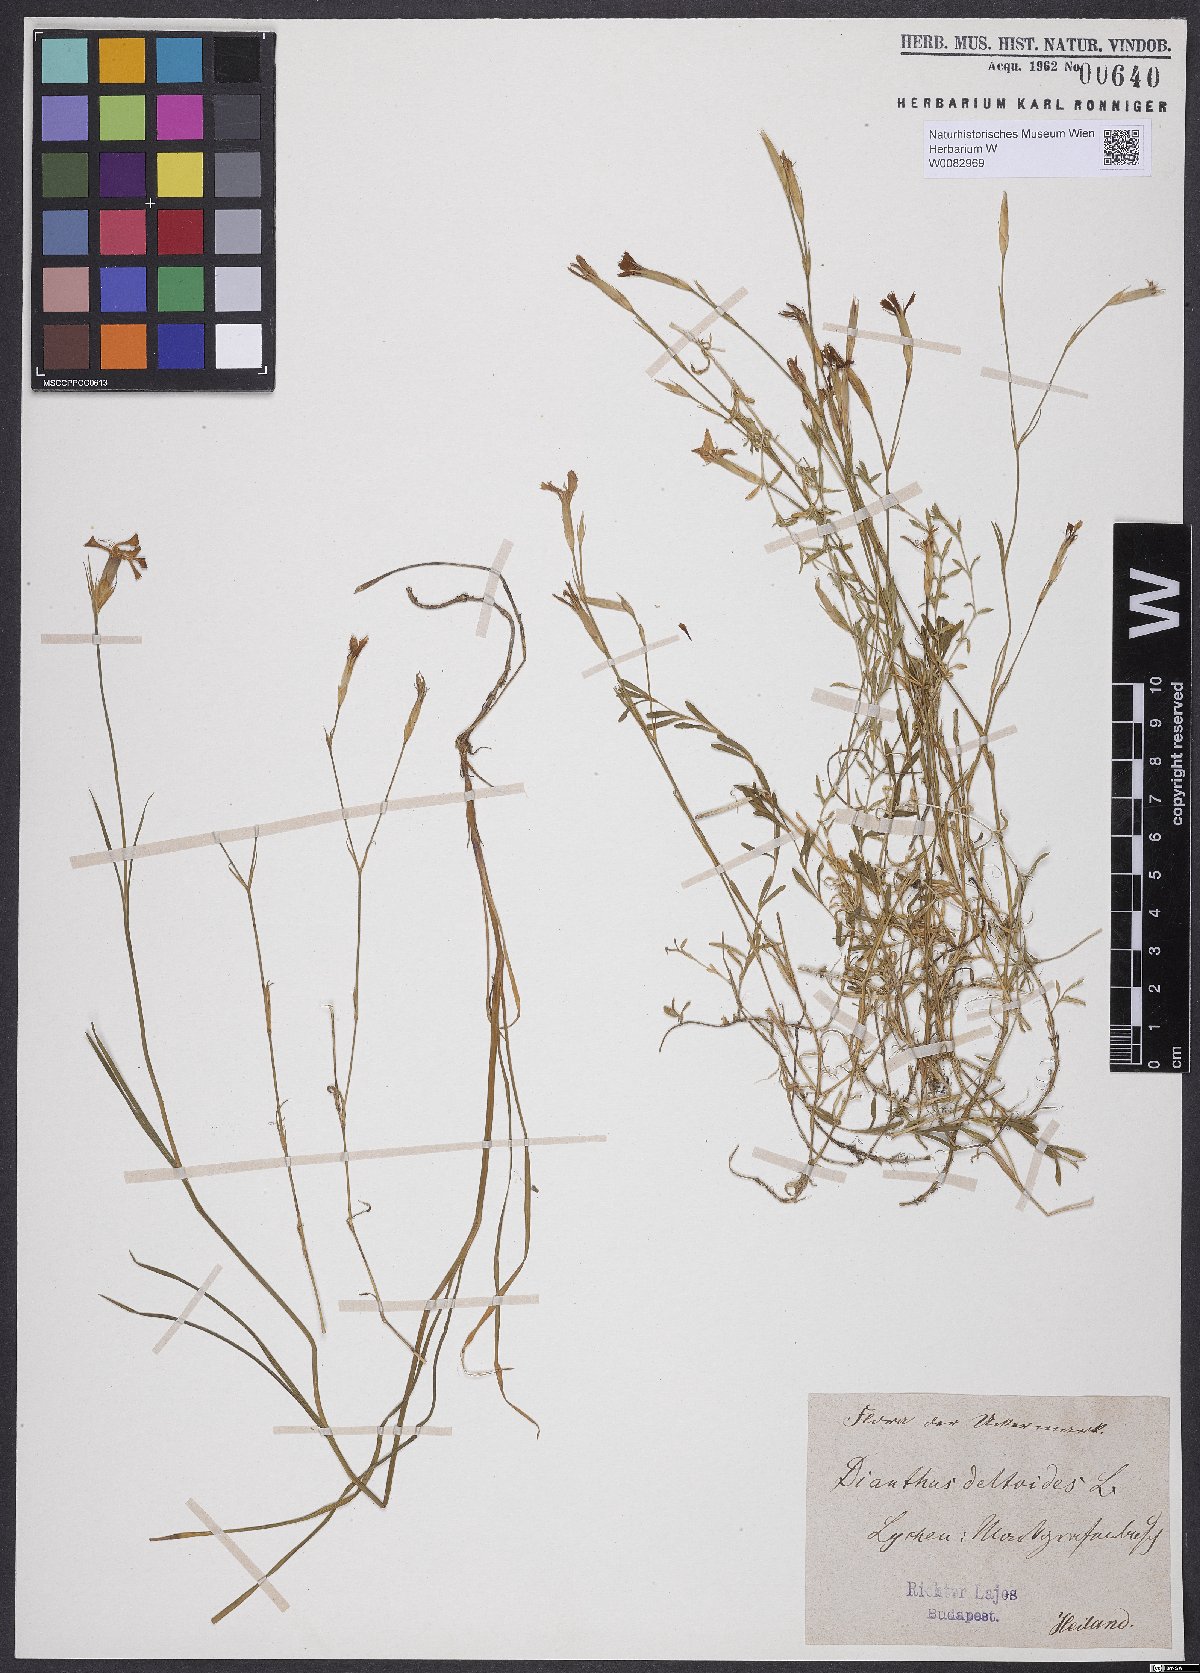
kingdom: Plantae
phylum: Tracheophyta
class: Magnoliopsida
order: Caryophyllales
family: Caryophyllaceae
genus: Dianthus
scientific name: Dianthus deltoides
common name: Maiden pink
